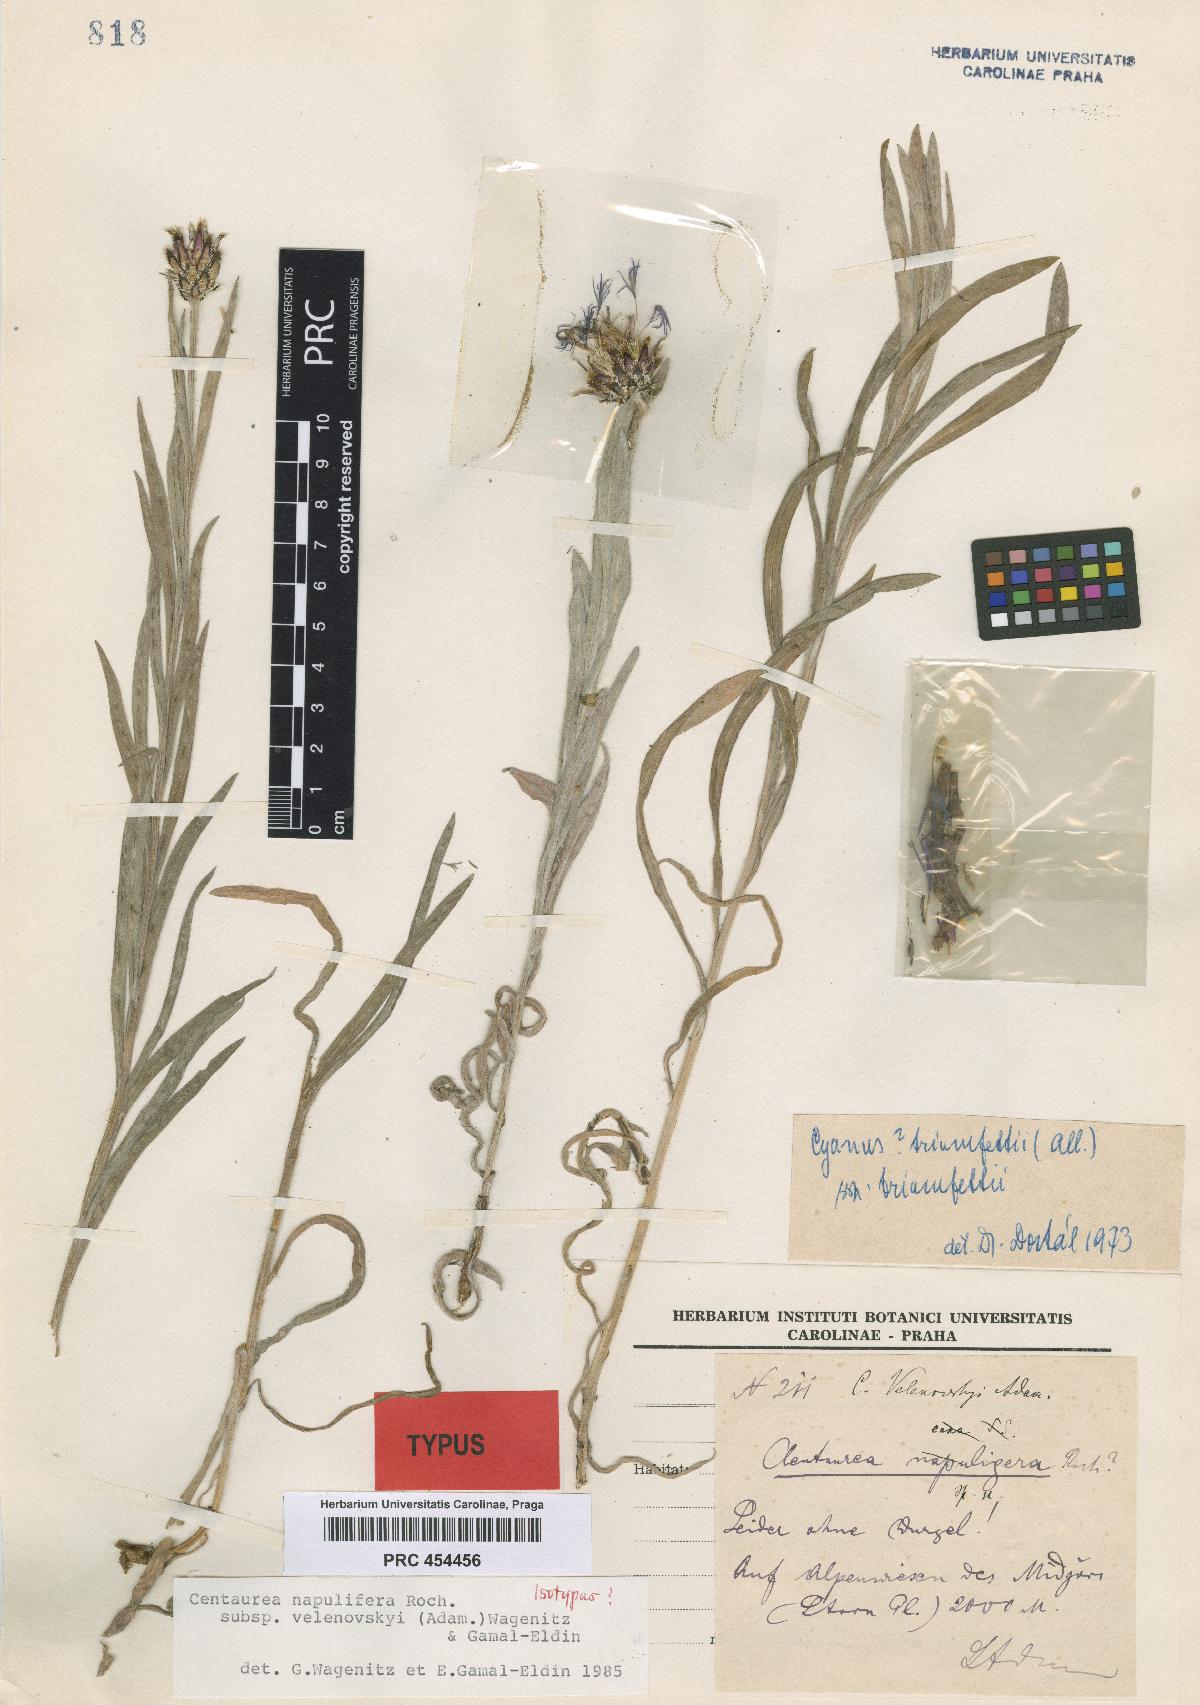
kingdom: Plantae
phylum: Tracheophyta
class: Magnoliopsida
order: Asterales
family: Asteraceae
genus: Centaurea
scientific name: Centaurea velenovskyi
